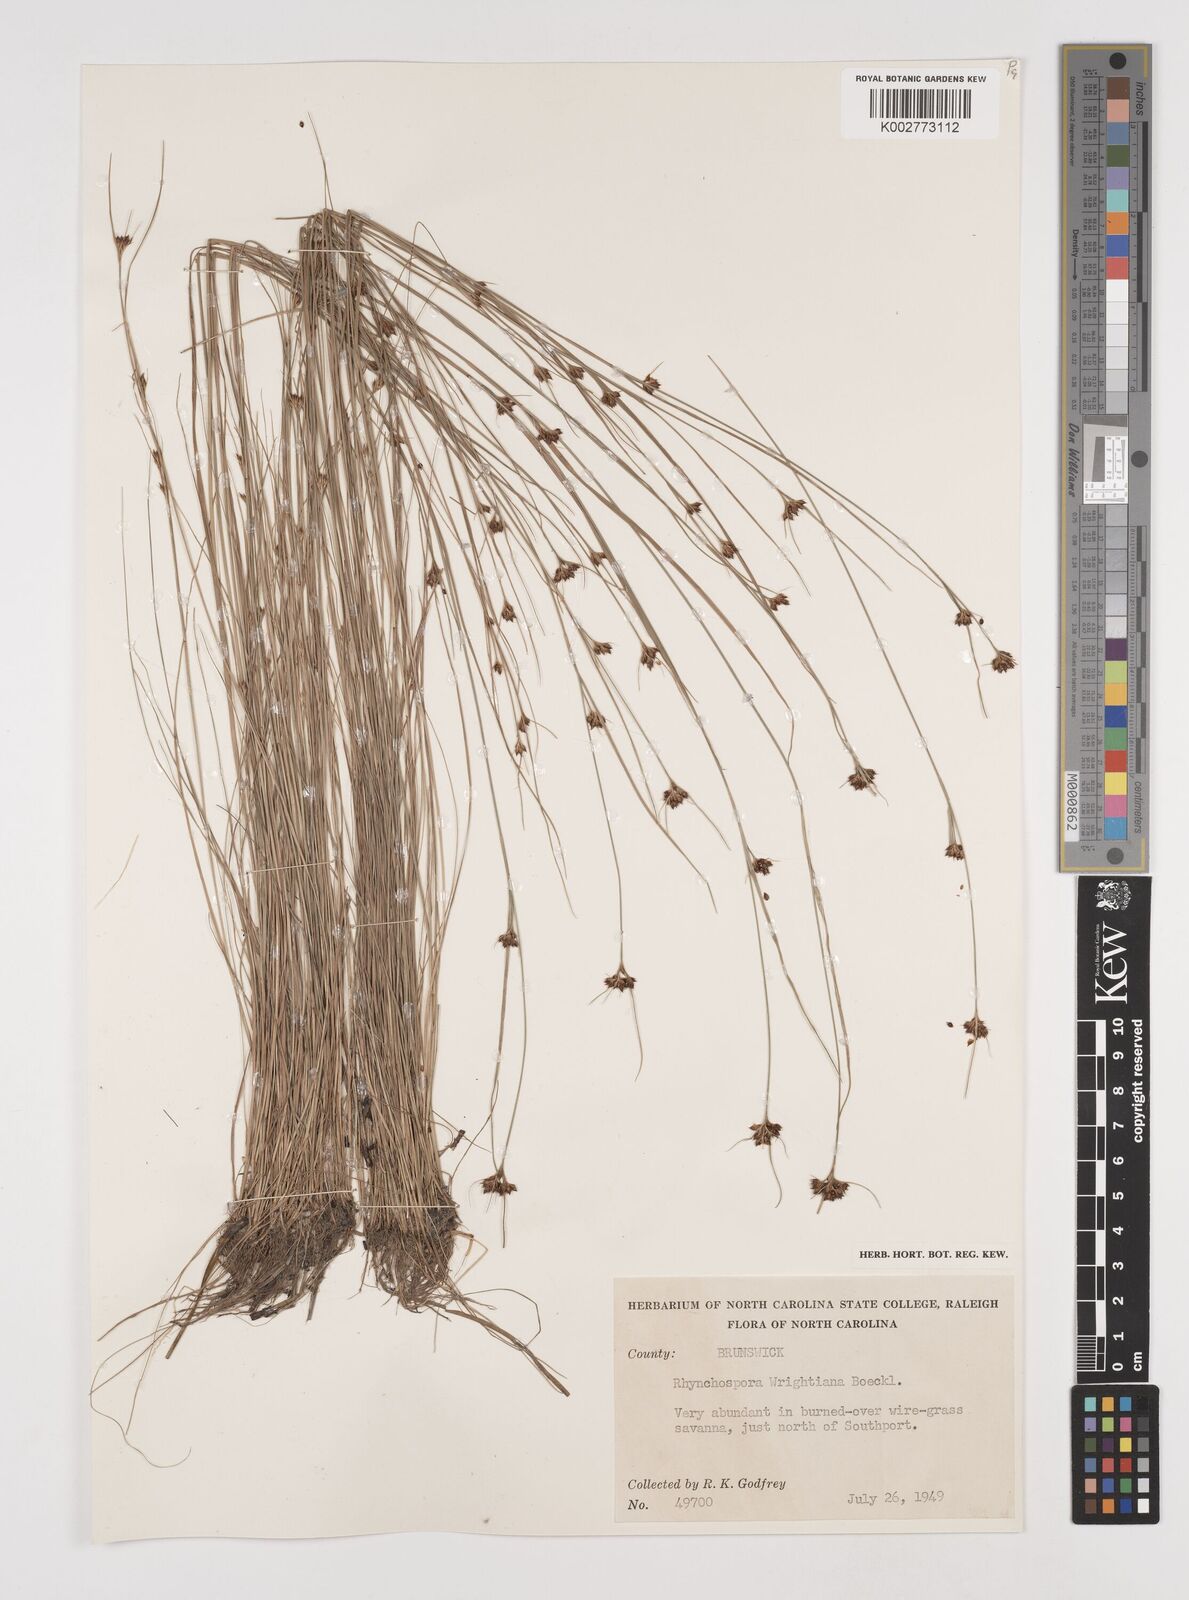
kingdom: Plantae
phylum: Tracheophyta
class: Liliopsida
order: Poales
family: Cyperaceae
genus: Rhynchospora
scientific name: Rhynchospora wrightiana
